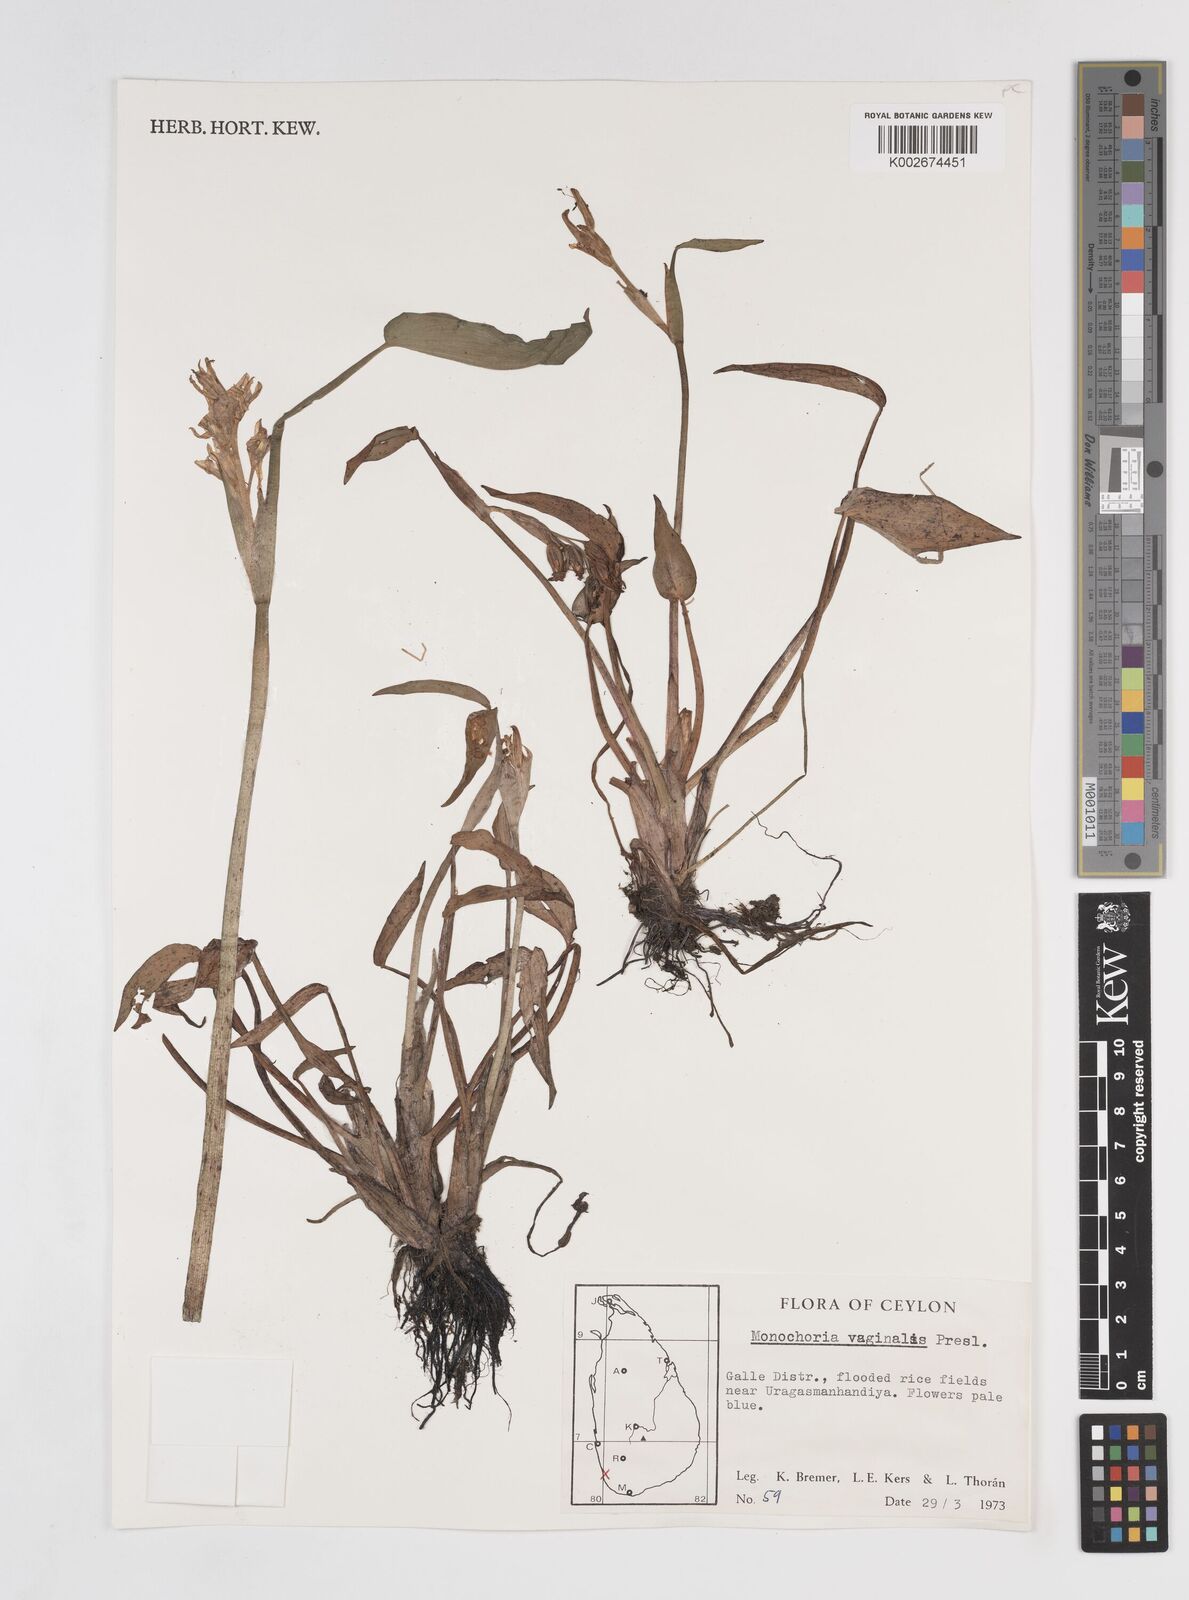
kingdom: Plantae
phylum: Tracheophyta
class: Liliopsida
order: Commelinales
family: Pontederiaceae
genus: Pontederia
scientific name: Pontederia vaginalis
